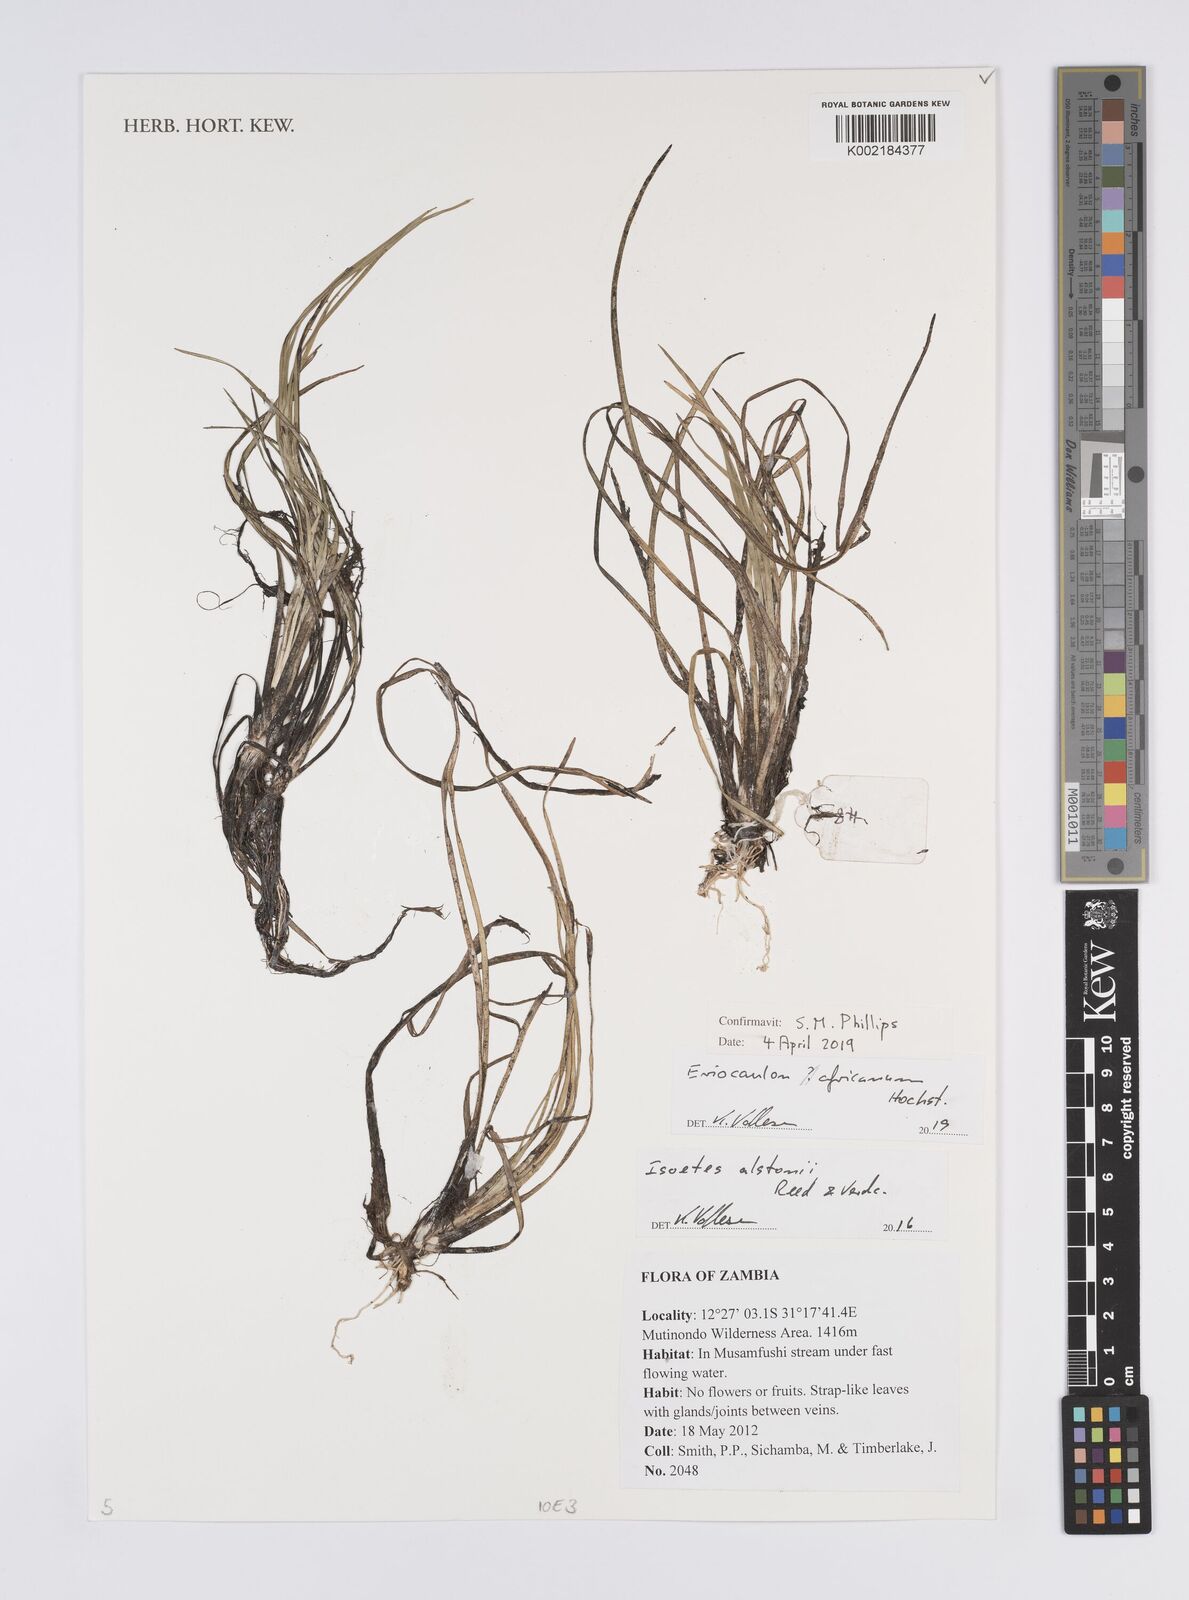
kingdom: Plantae
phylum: Tracheophyta
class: Liliopsida
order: Poales
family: Eriocaulaceae
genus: Eriocaulon
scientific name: Eriocaulon africanum
